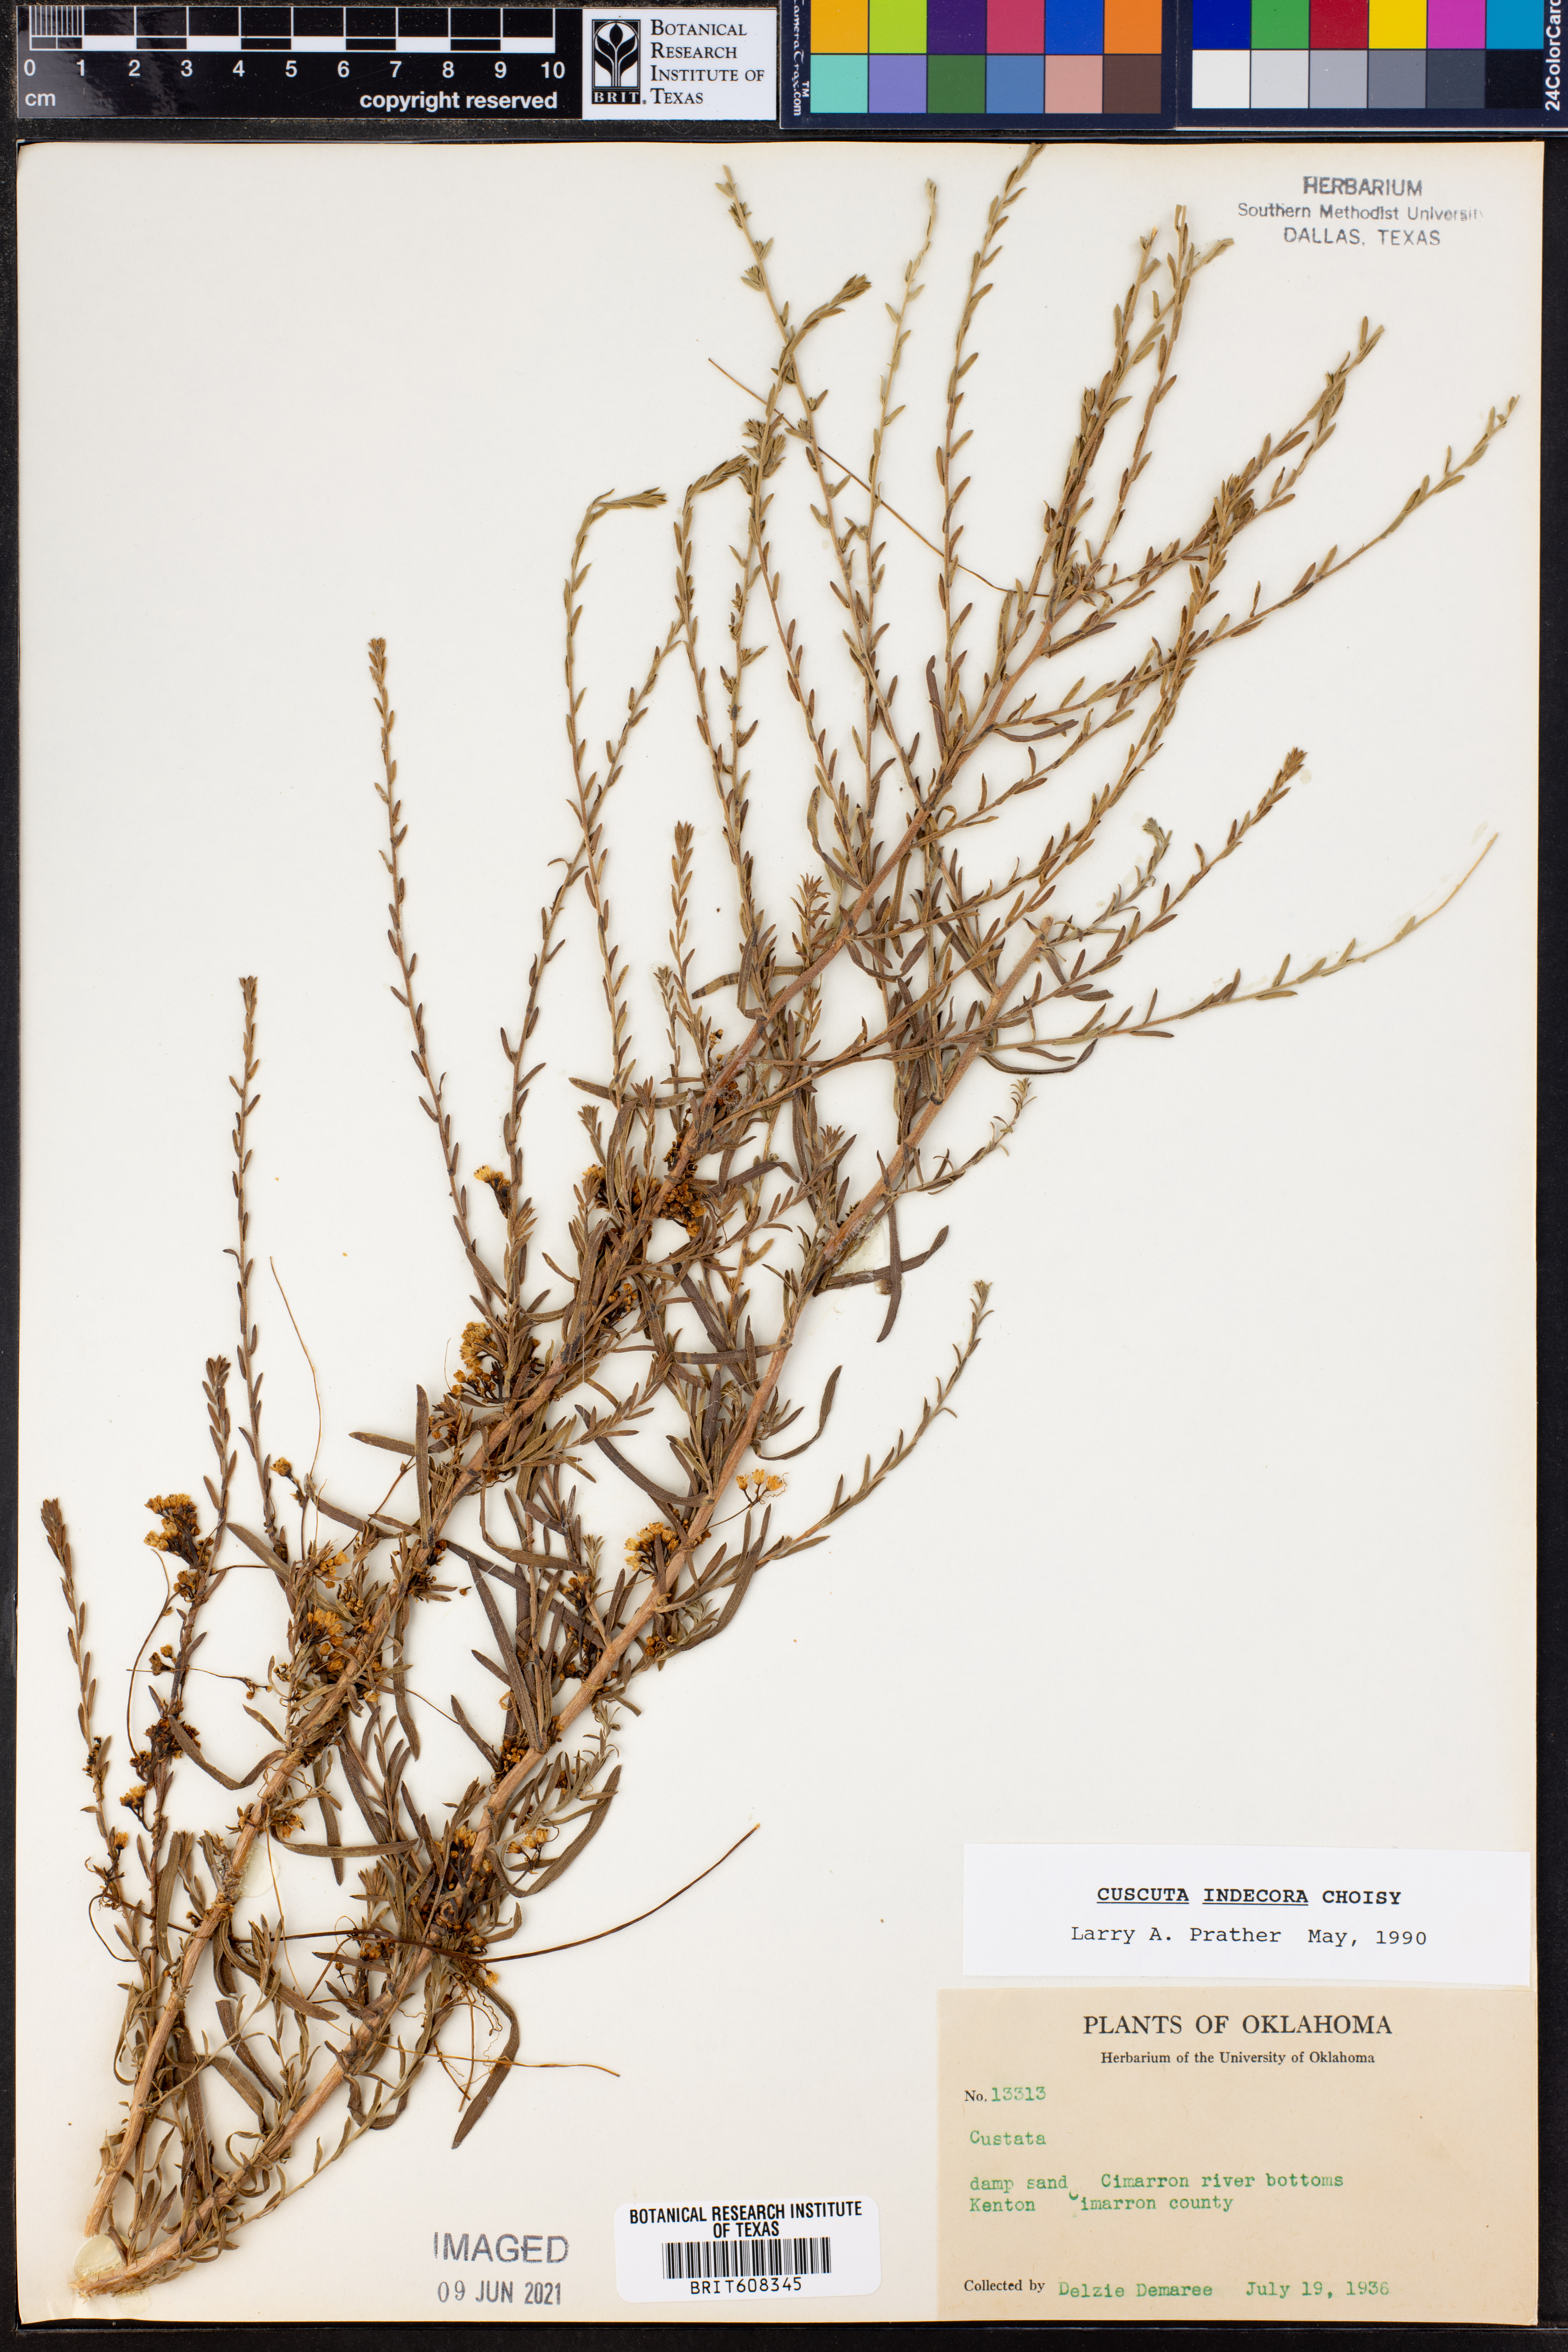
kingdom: Plantae
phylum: Tracheophyta
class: Magnoliopsida
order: Solanales
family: Convolvulaceae
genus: Cuscuta
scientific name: Cuscuta indecora
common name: Large-seed dodder
